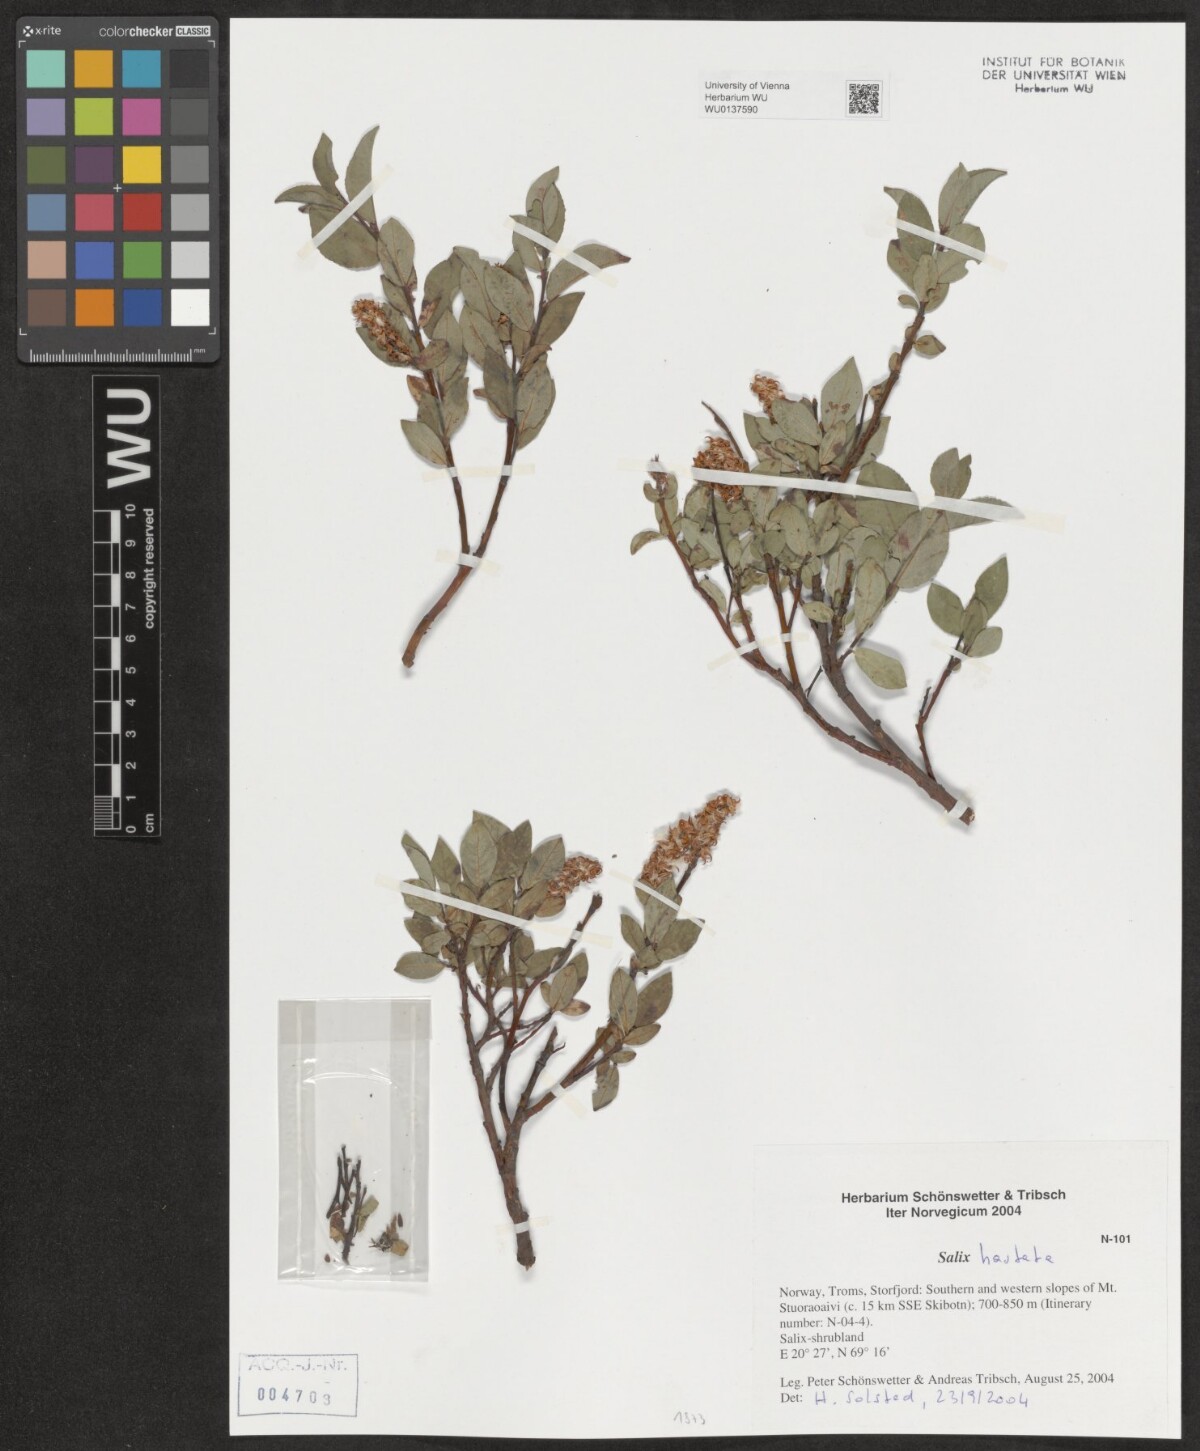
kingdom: Plantae
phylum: Tracheophyta
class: Magnoliopsida
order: Malpighiales
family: Salicaceae
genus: Salix
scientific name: Salix hastata
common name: Halberd willow
